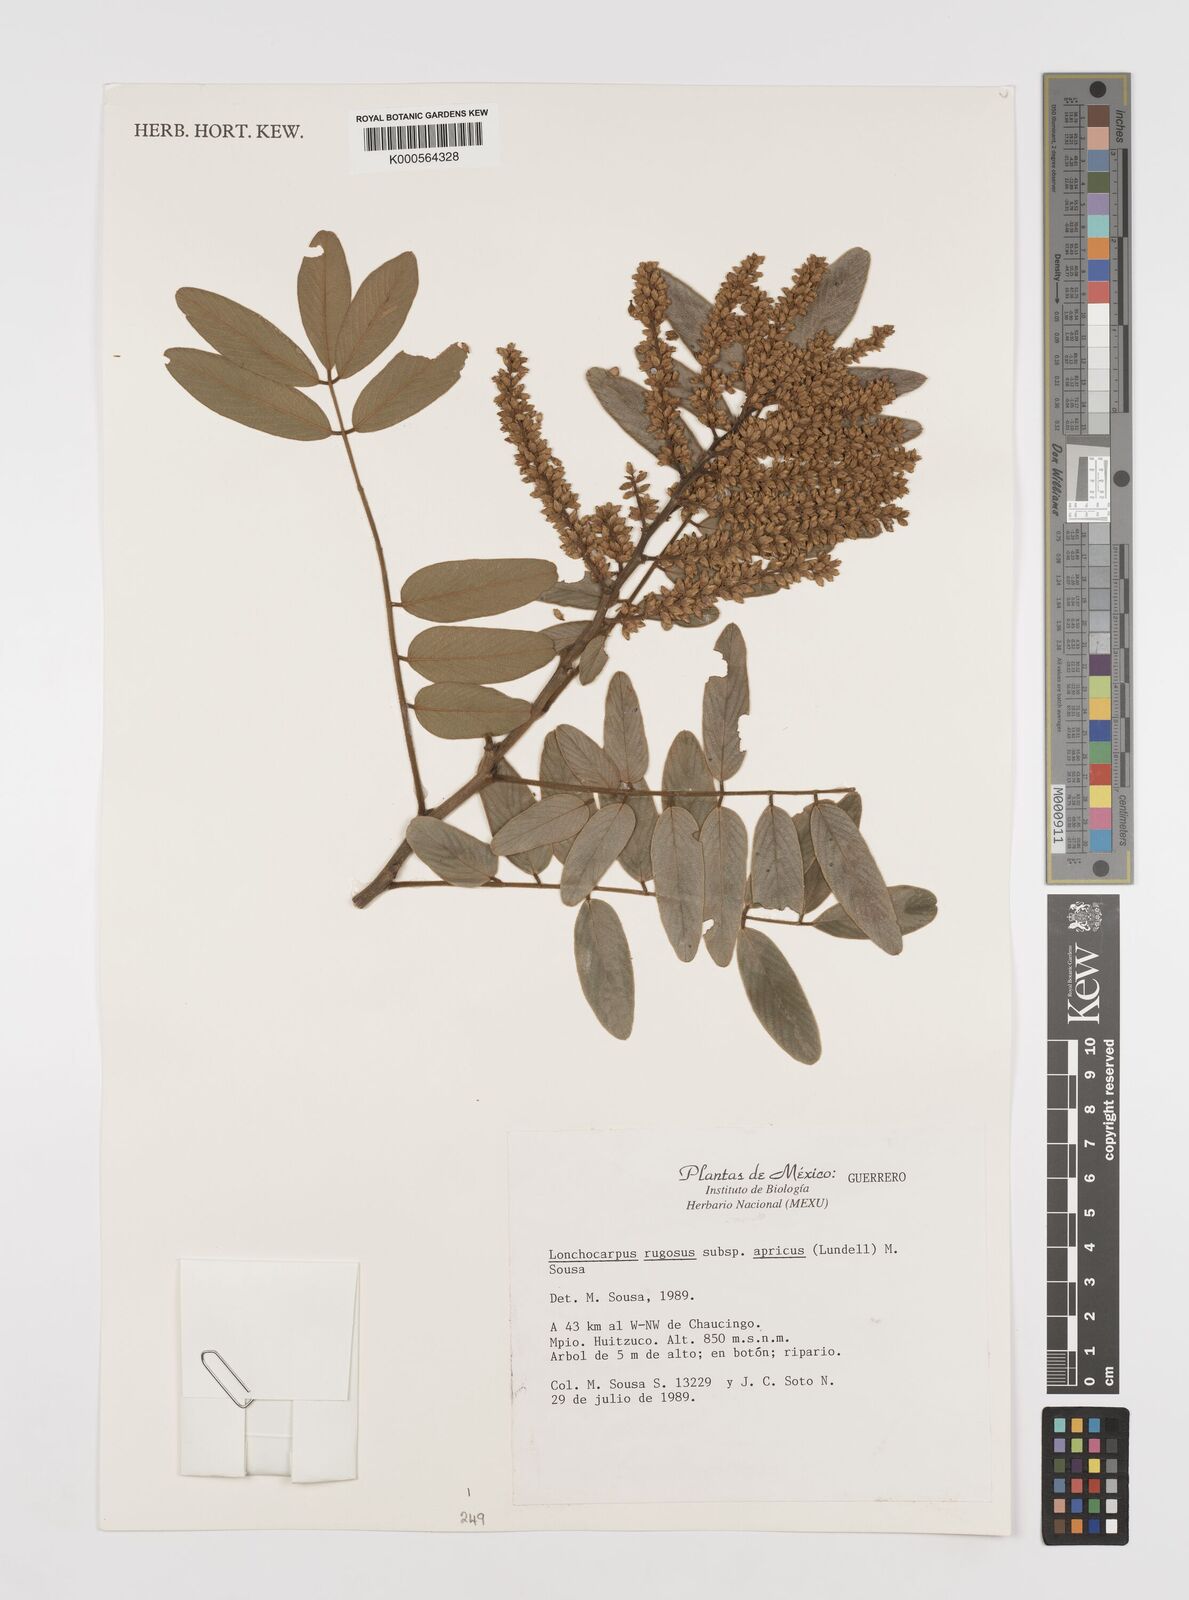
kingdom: Plantae
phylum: Tracheophyta
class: Magnoliopsida
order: Fabales
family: Fabaceae
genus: Lonchocarpus
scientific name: Lonchocarpus rugosus
